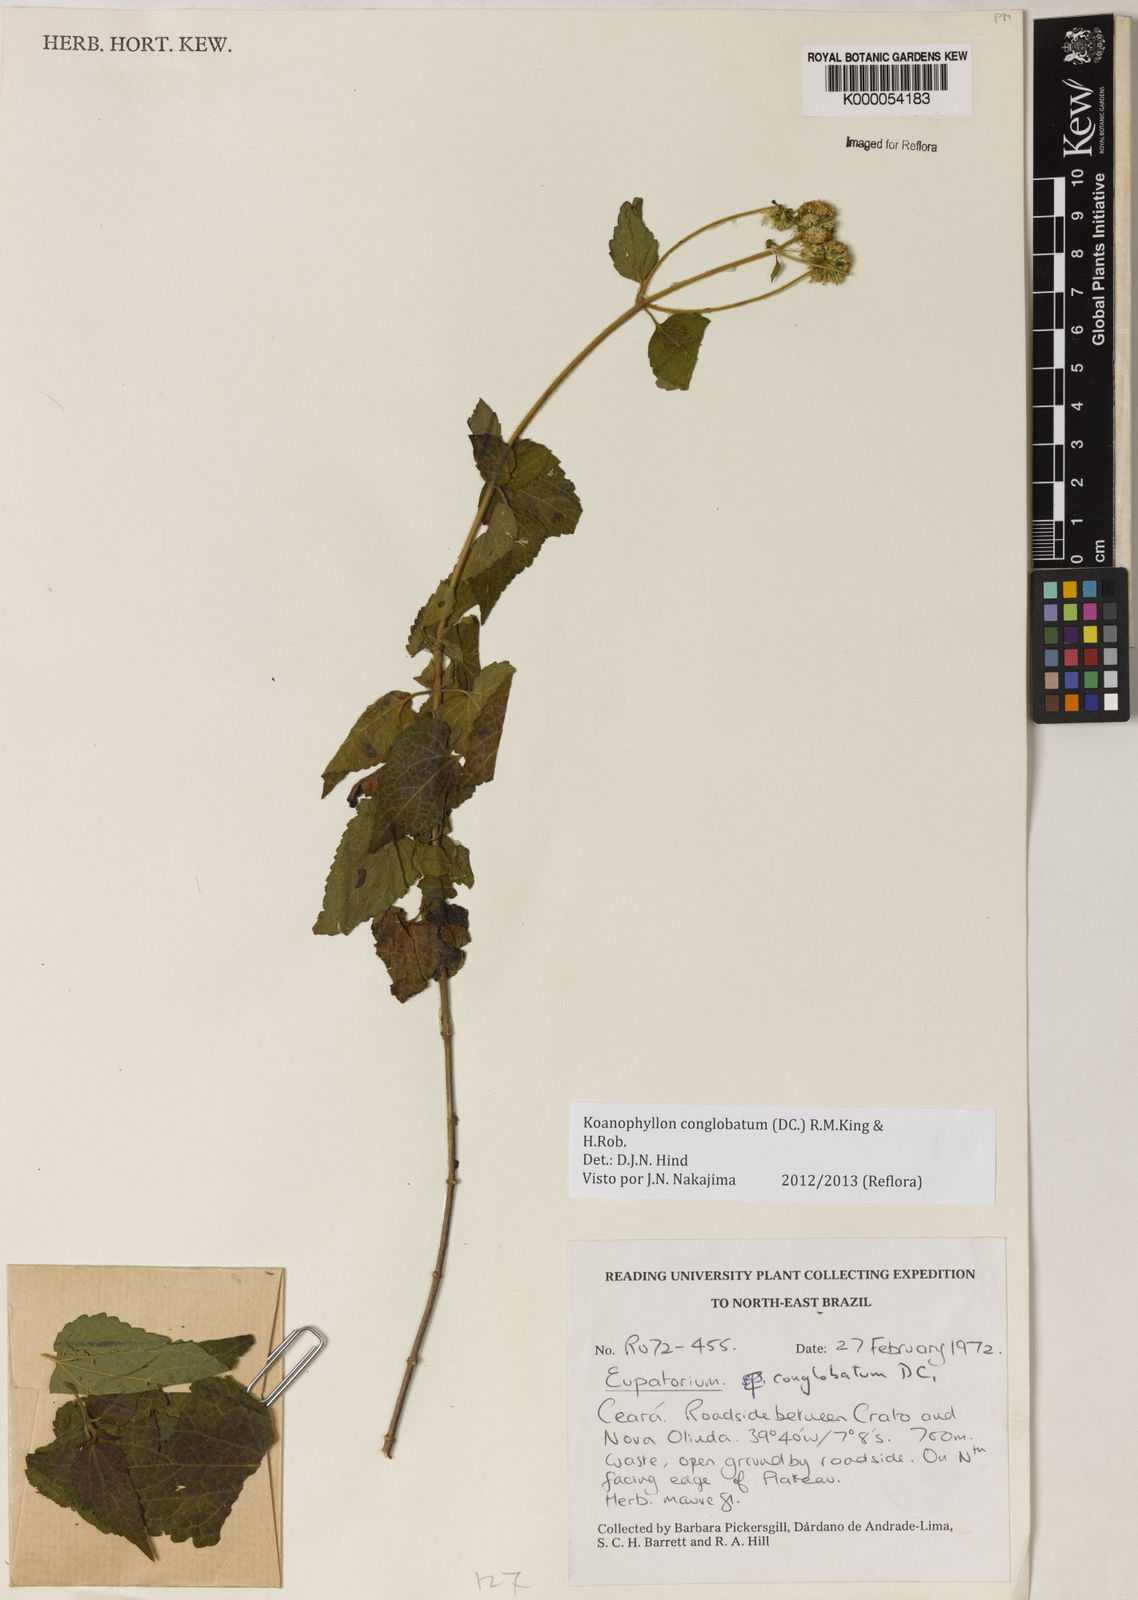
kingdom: Plantae
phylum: Tracheophyta
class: Magnoliopsida
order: Asterales
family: Asteraceae
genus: Koanophyllon
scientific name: Koanophyllon conglobatum
